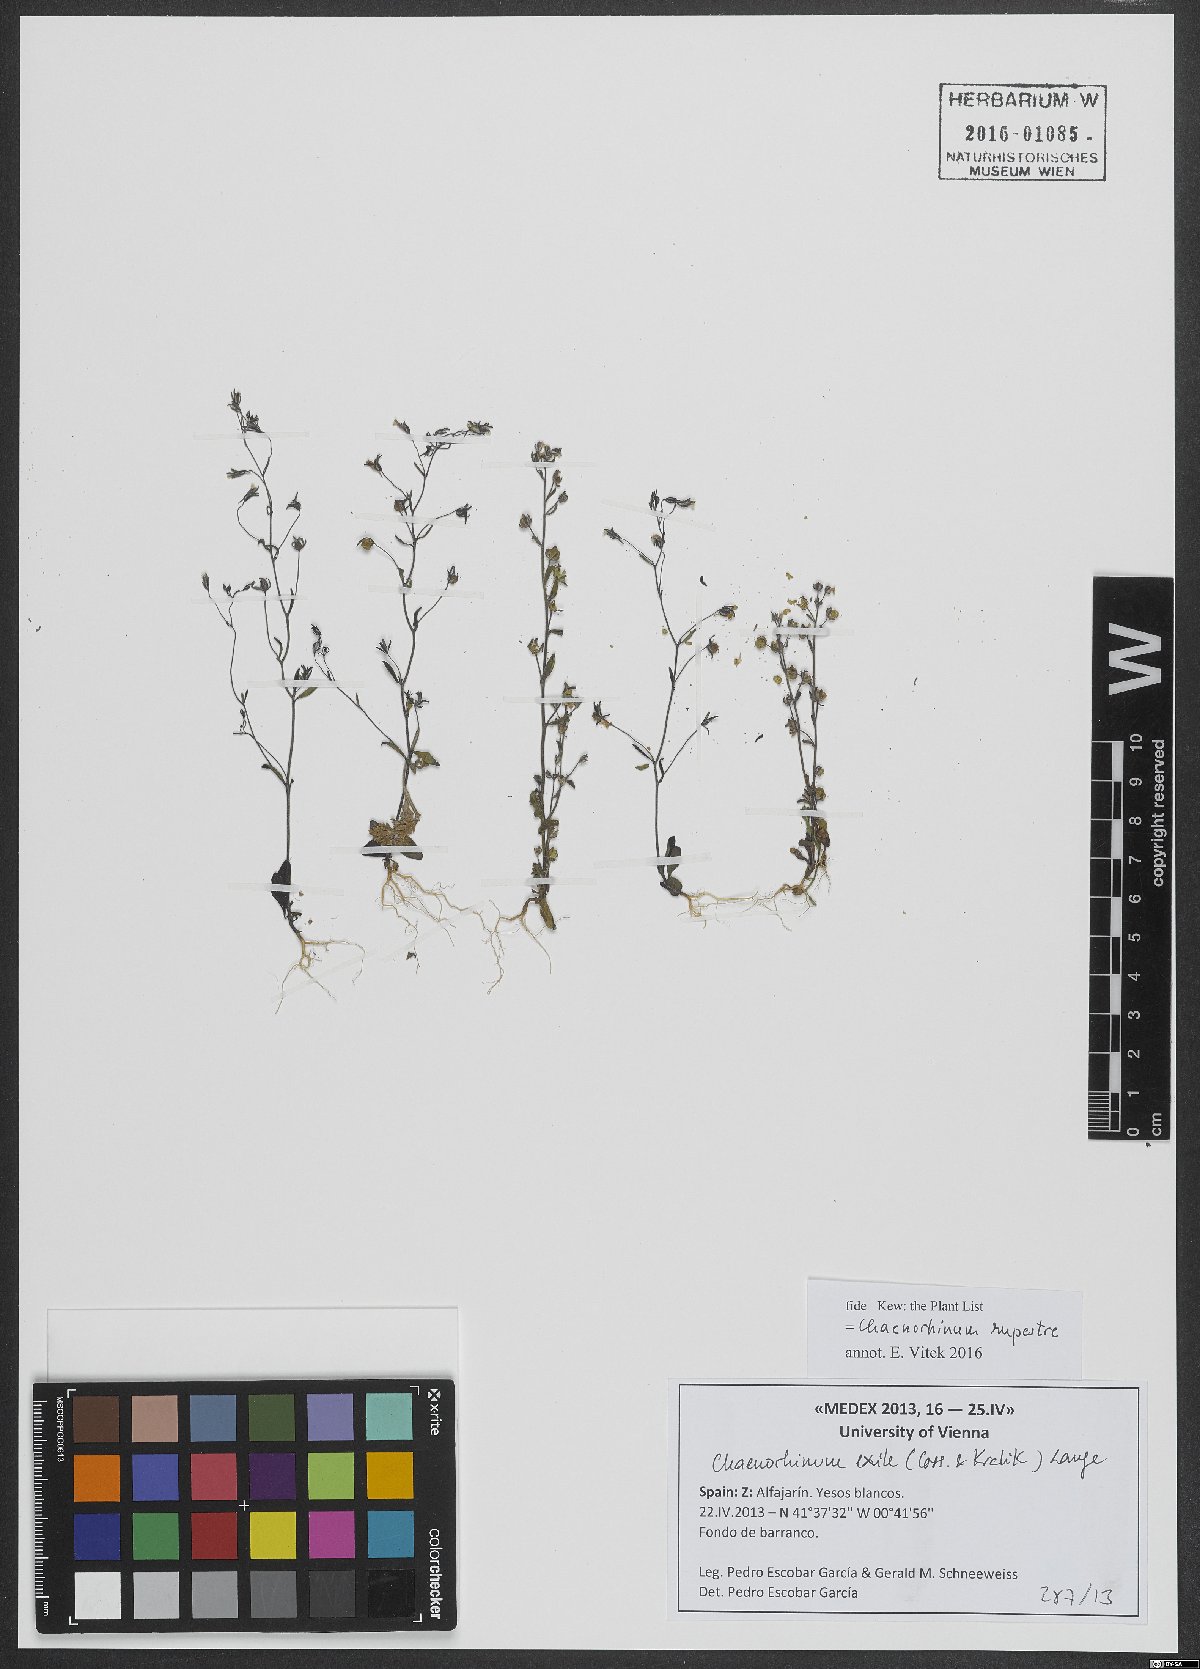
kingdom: Plantae
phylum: Tracheophyta
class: Magnoliopsida
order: Lamiales
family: Plantaginaceae
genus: Chaenorhinum
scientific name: Chaenorhinum rupestre
